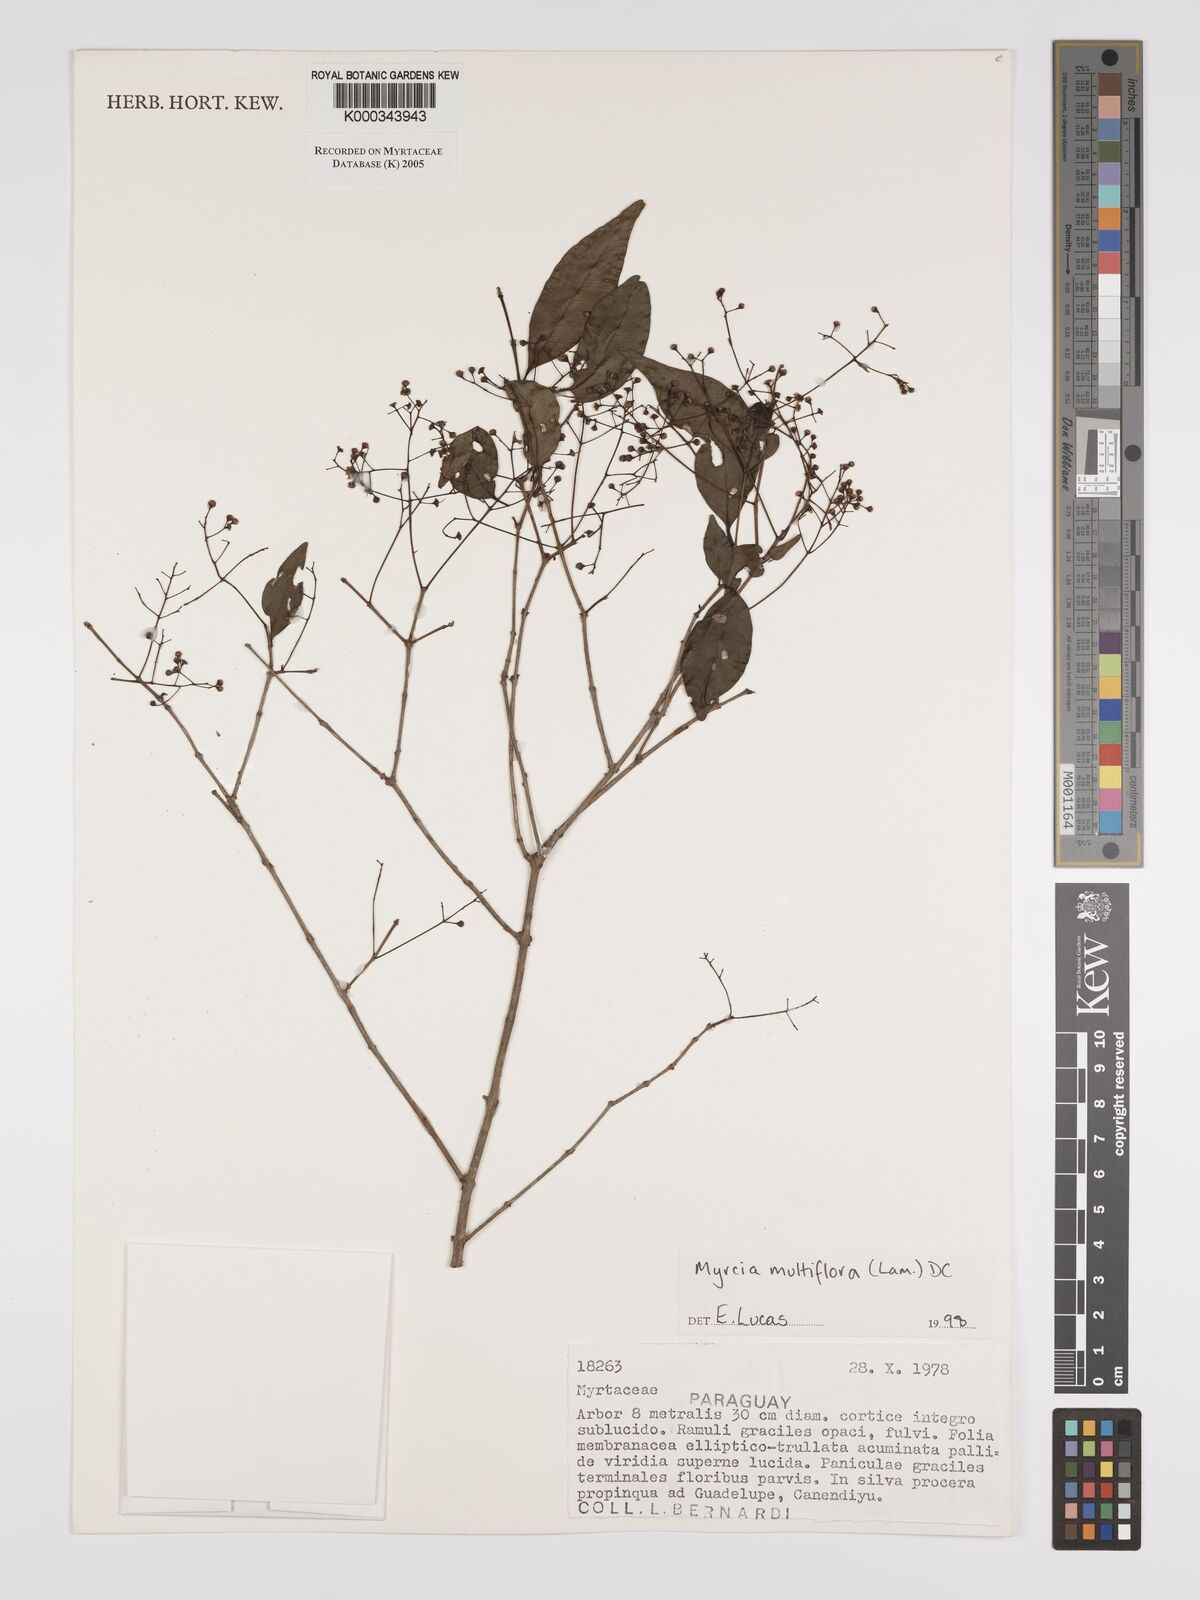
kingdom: Plantae
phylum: Tracheophyta
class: Magnoliopsida
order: Myrtales
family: Myrtaceae
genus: Myrcia
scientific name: Myrcia multiflora
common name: Pedra hume
